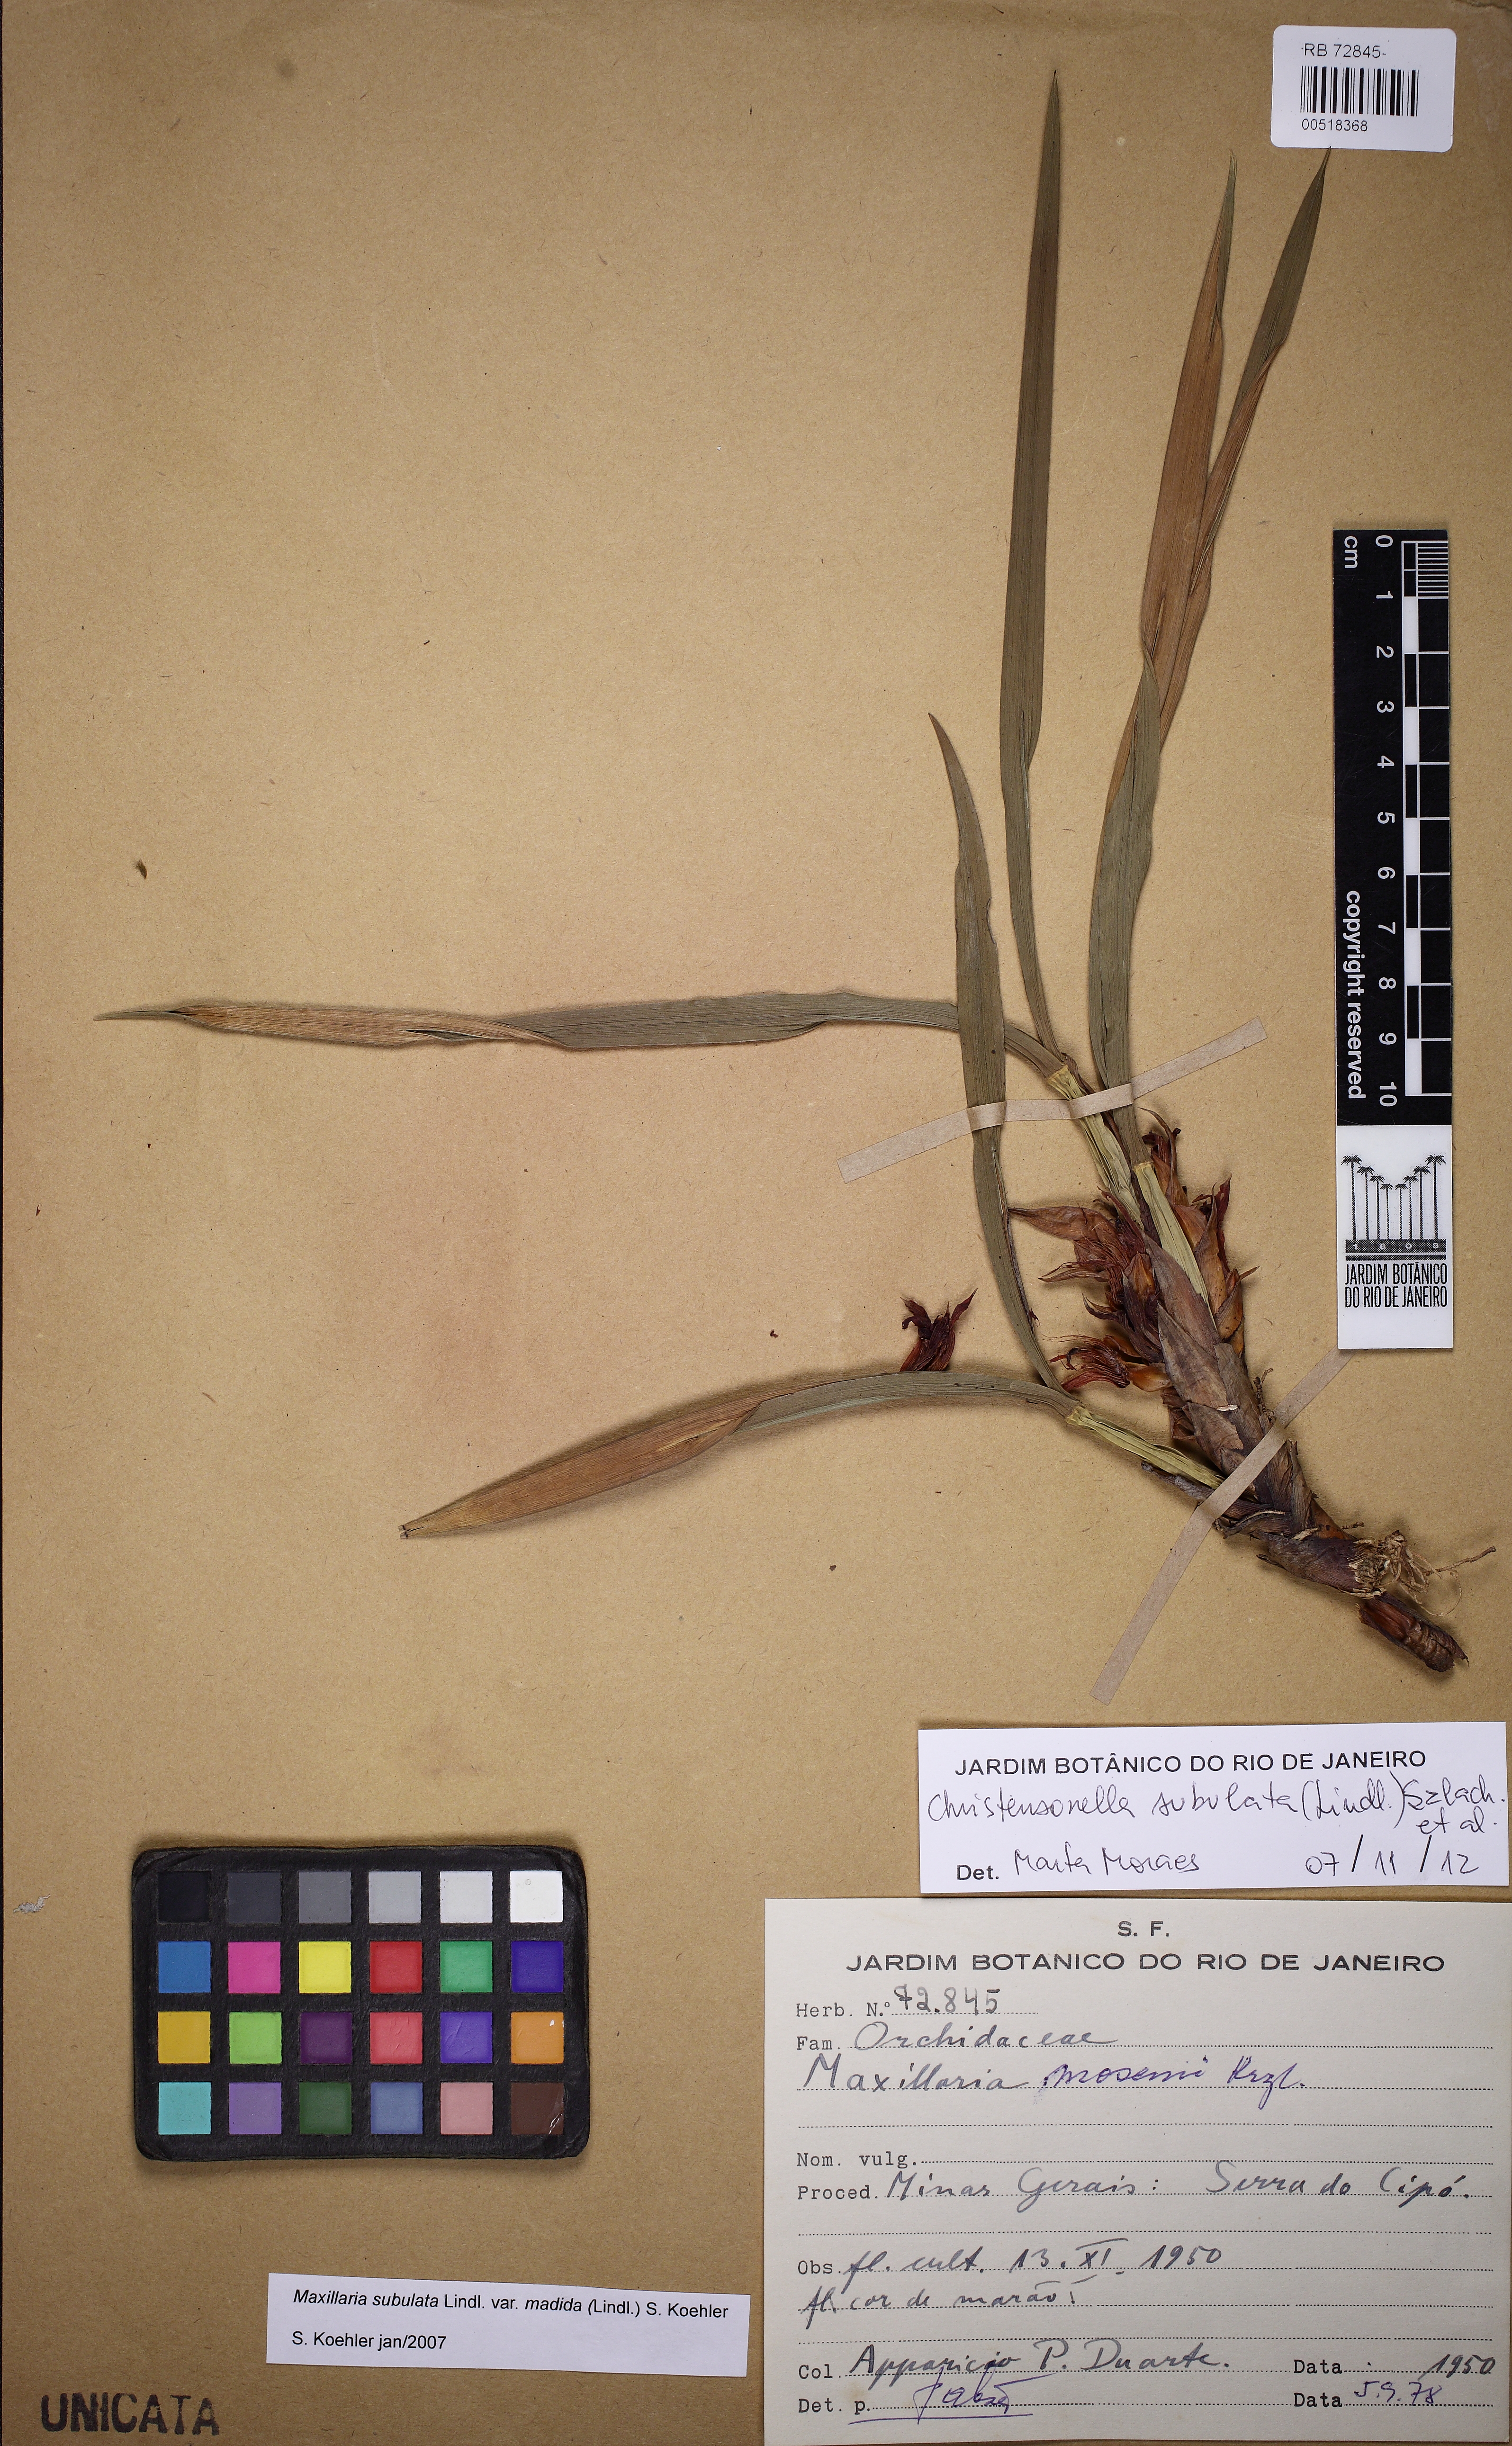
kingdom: Plantae
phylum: Tracheophyta
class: Liliopsida
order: Asparagales
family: Orchidaceae
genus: Maxillaria
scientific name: Maxillaria subulata
